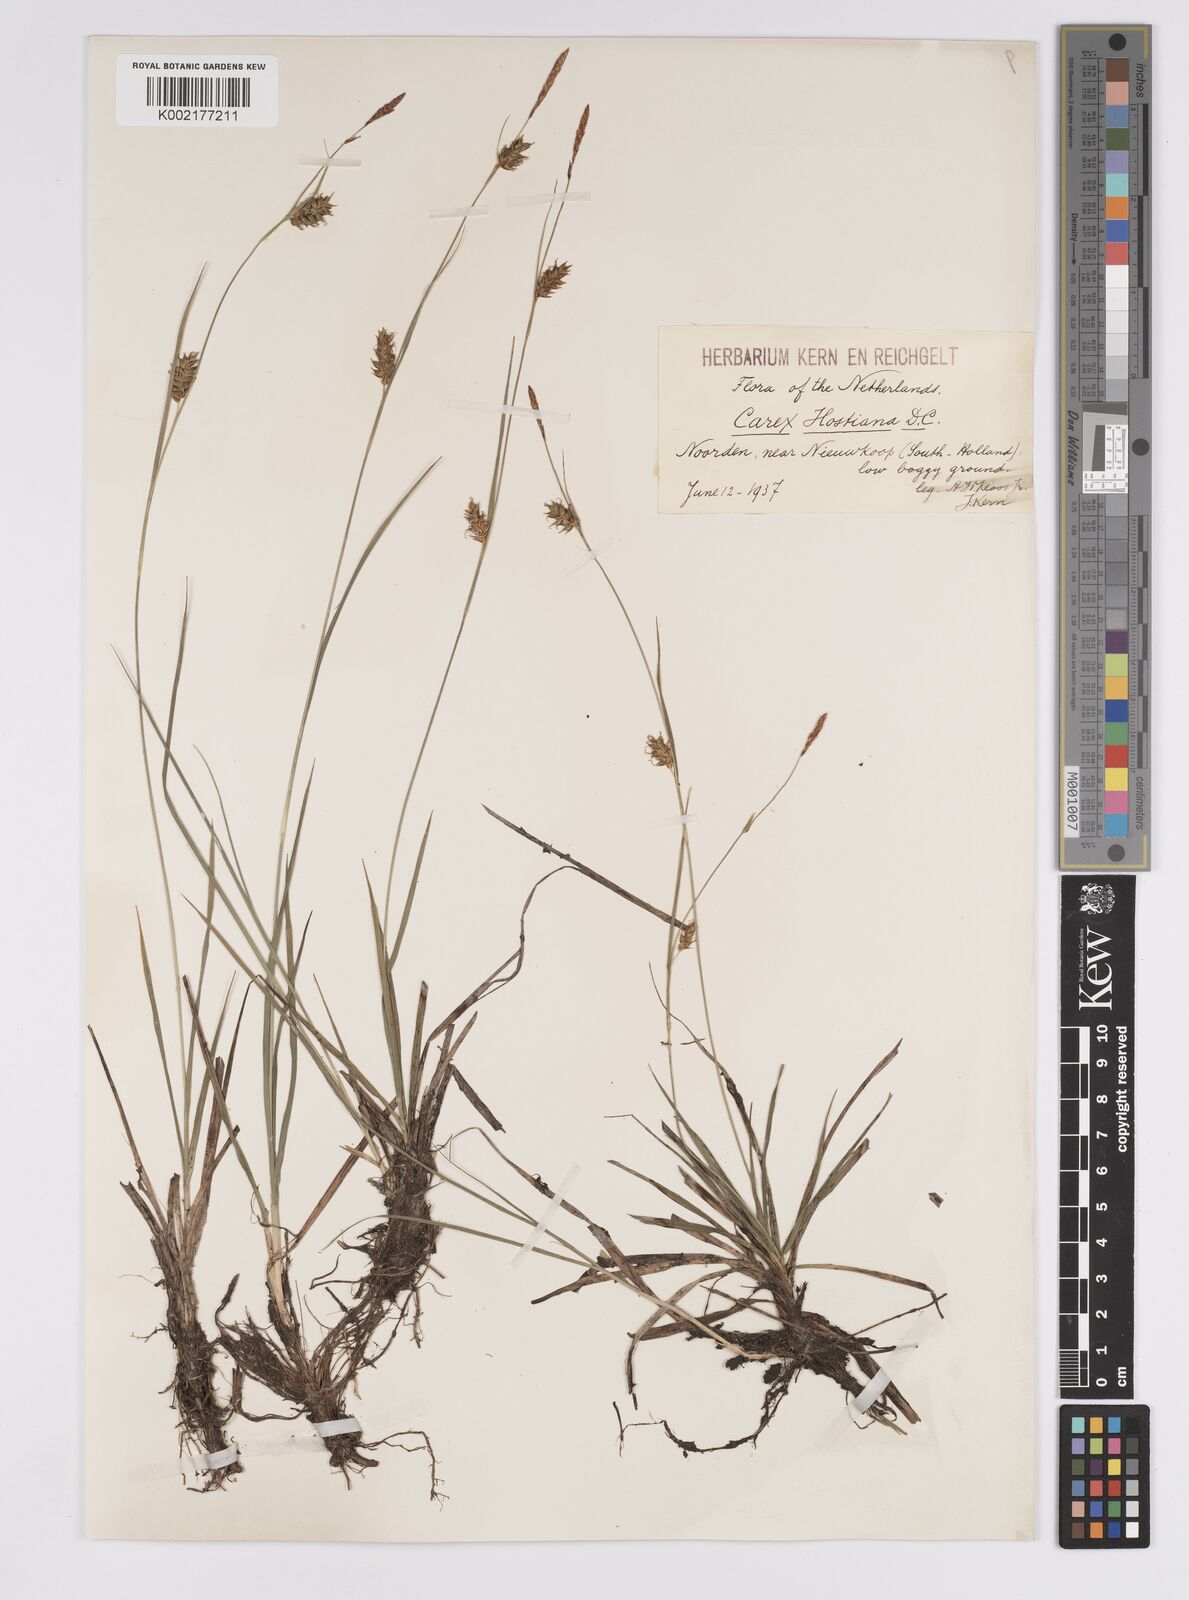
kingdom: Plantae
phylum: Tracheophyta
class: Liliopsida
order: Poales
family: Cyperaceae
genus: Carex
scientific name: Carex hostiana
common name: Tawny sedge
